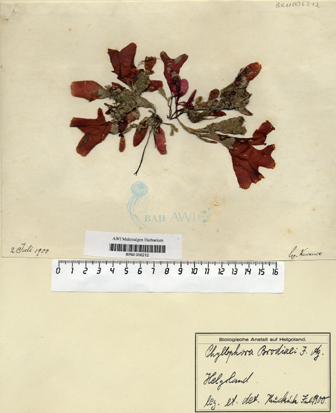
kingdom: Plantae
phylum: Rhodophyta
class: Florideophyceae
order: Gigartinales
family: Phyllophoraceae
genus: Coccotylus
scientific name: Coccotylus
